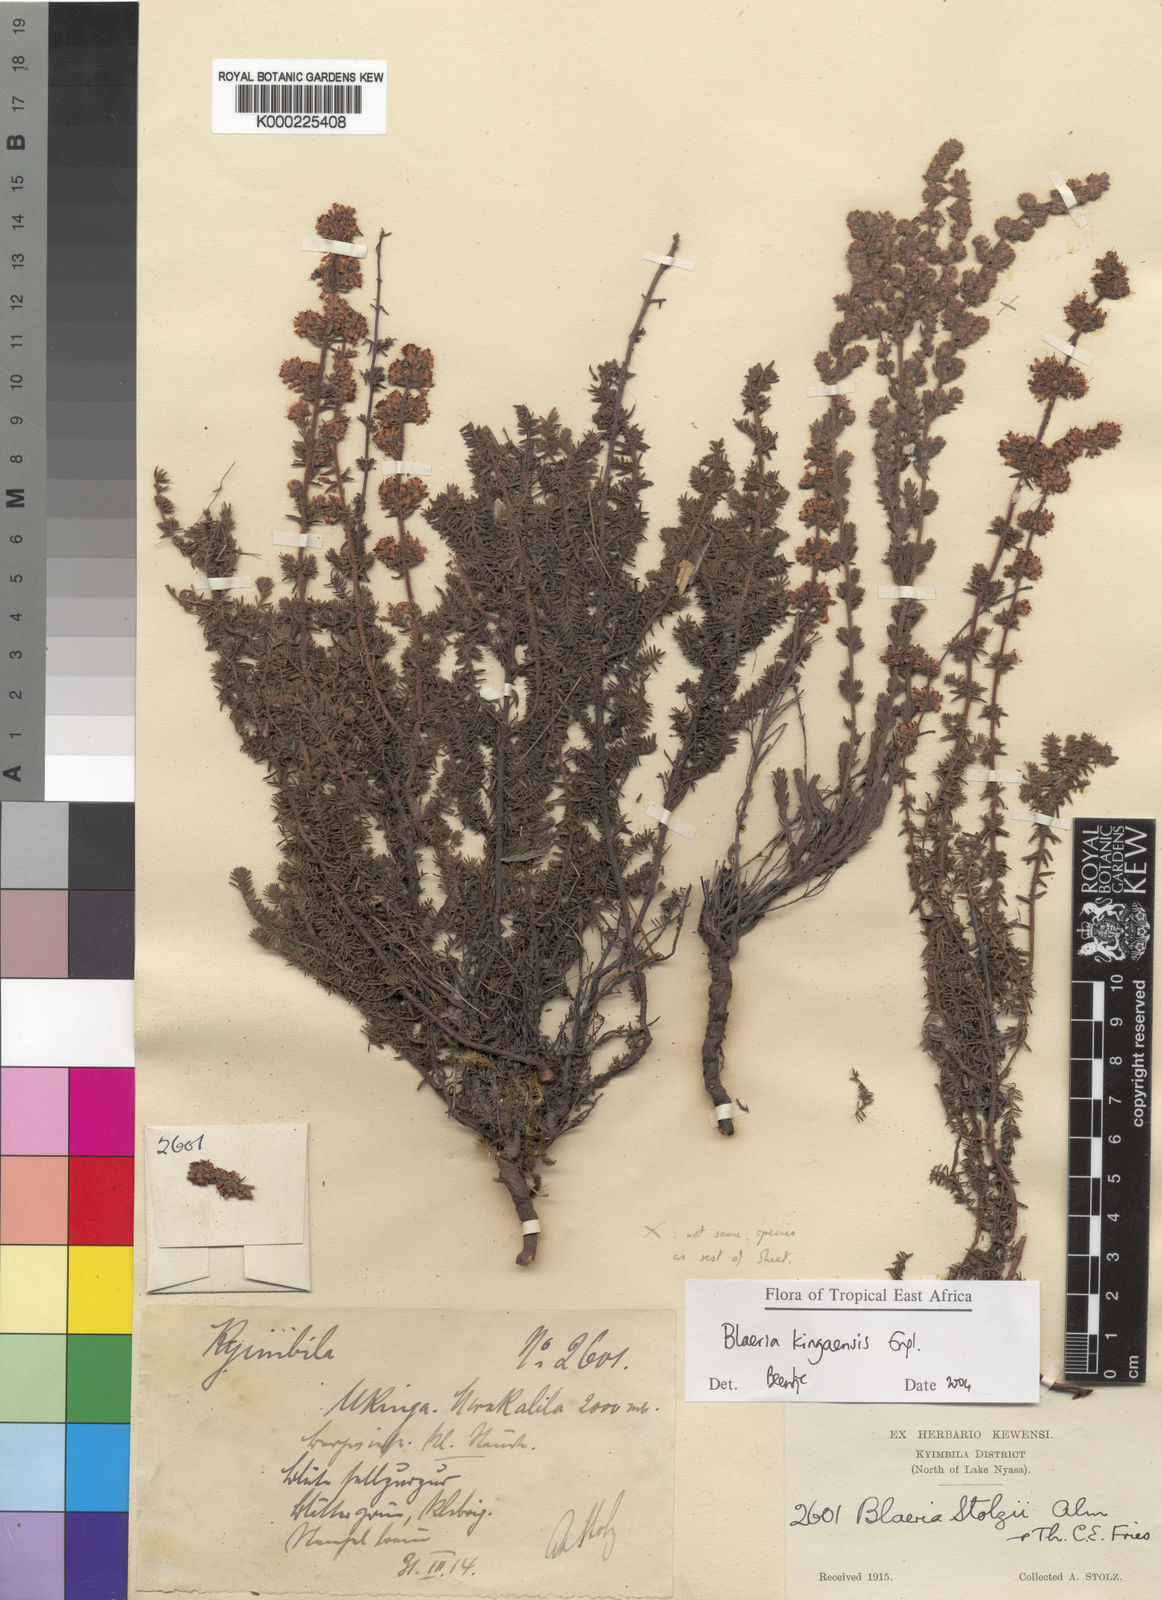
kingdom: Plantae
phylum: Tracheophyta
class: Magnoliopsida
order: Ericales
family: Ericaceae
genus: Erica
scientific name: Erica silvatica
